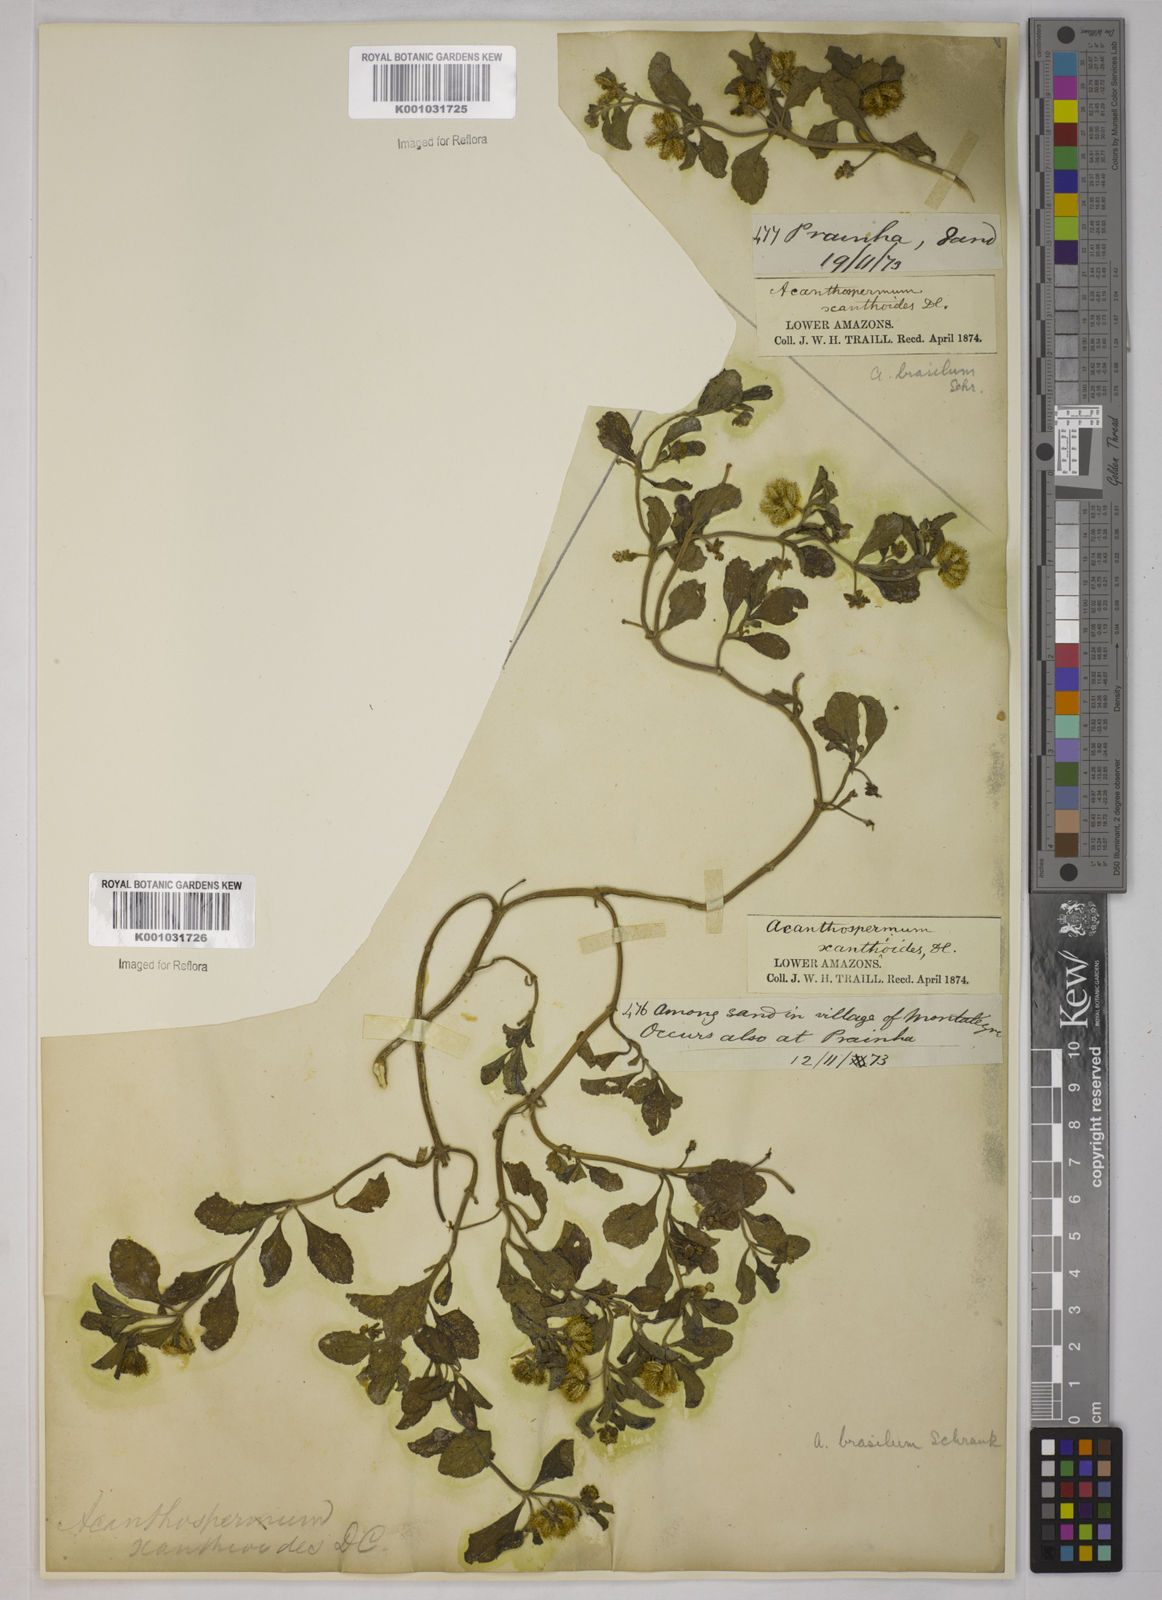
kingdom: Plantae
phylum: Tracheophyta
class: Magnoliopsida
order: Asterales
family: Asteraceae
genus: Acanthospermum
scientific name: Acanthospermum australe
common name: Paraguayan starbur
